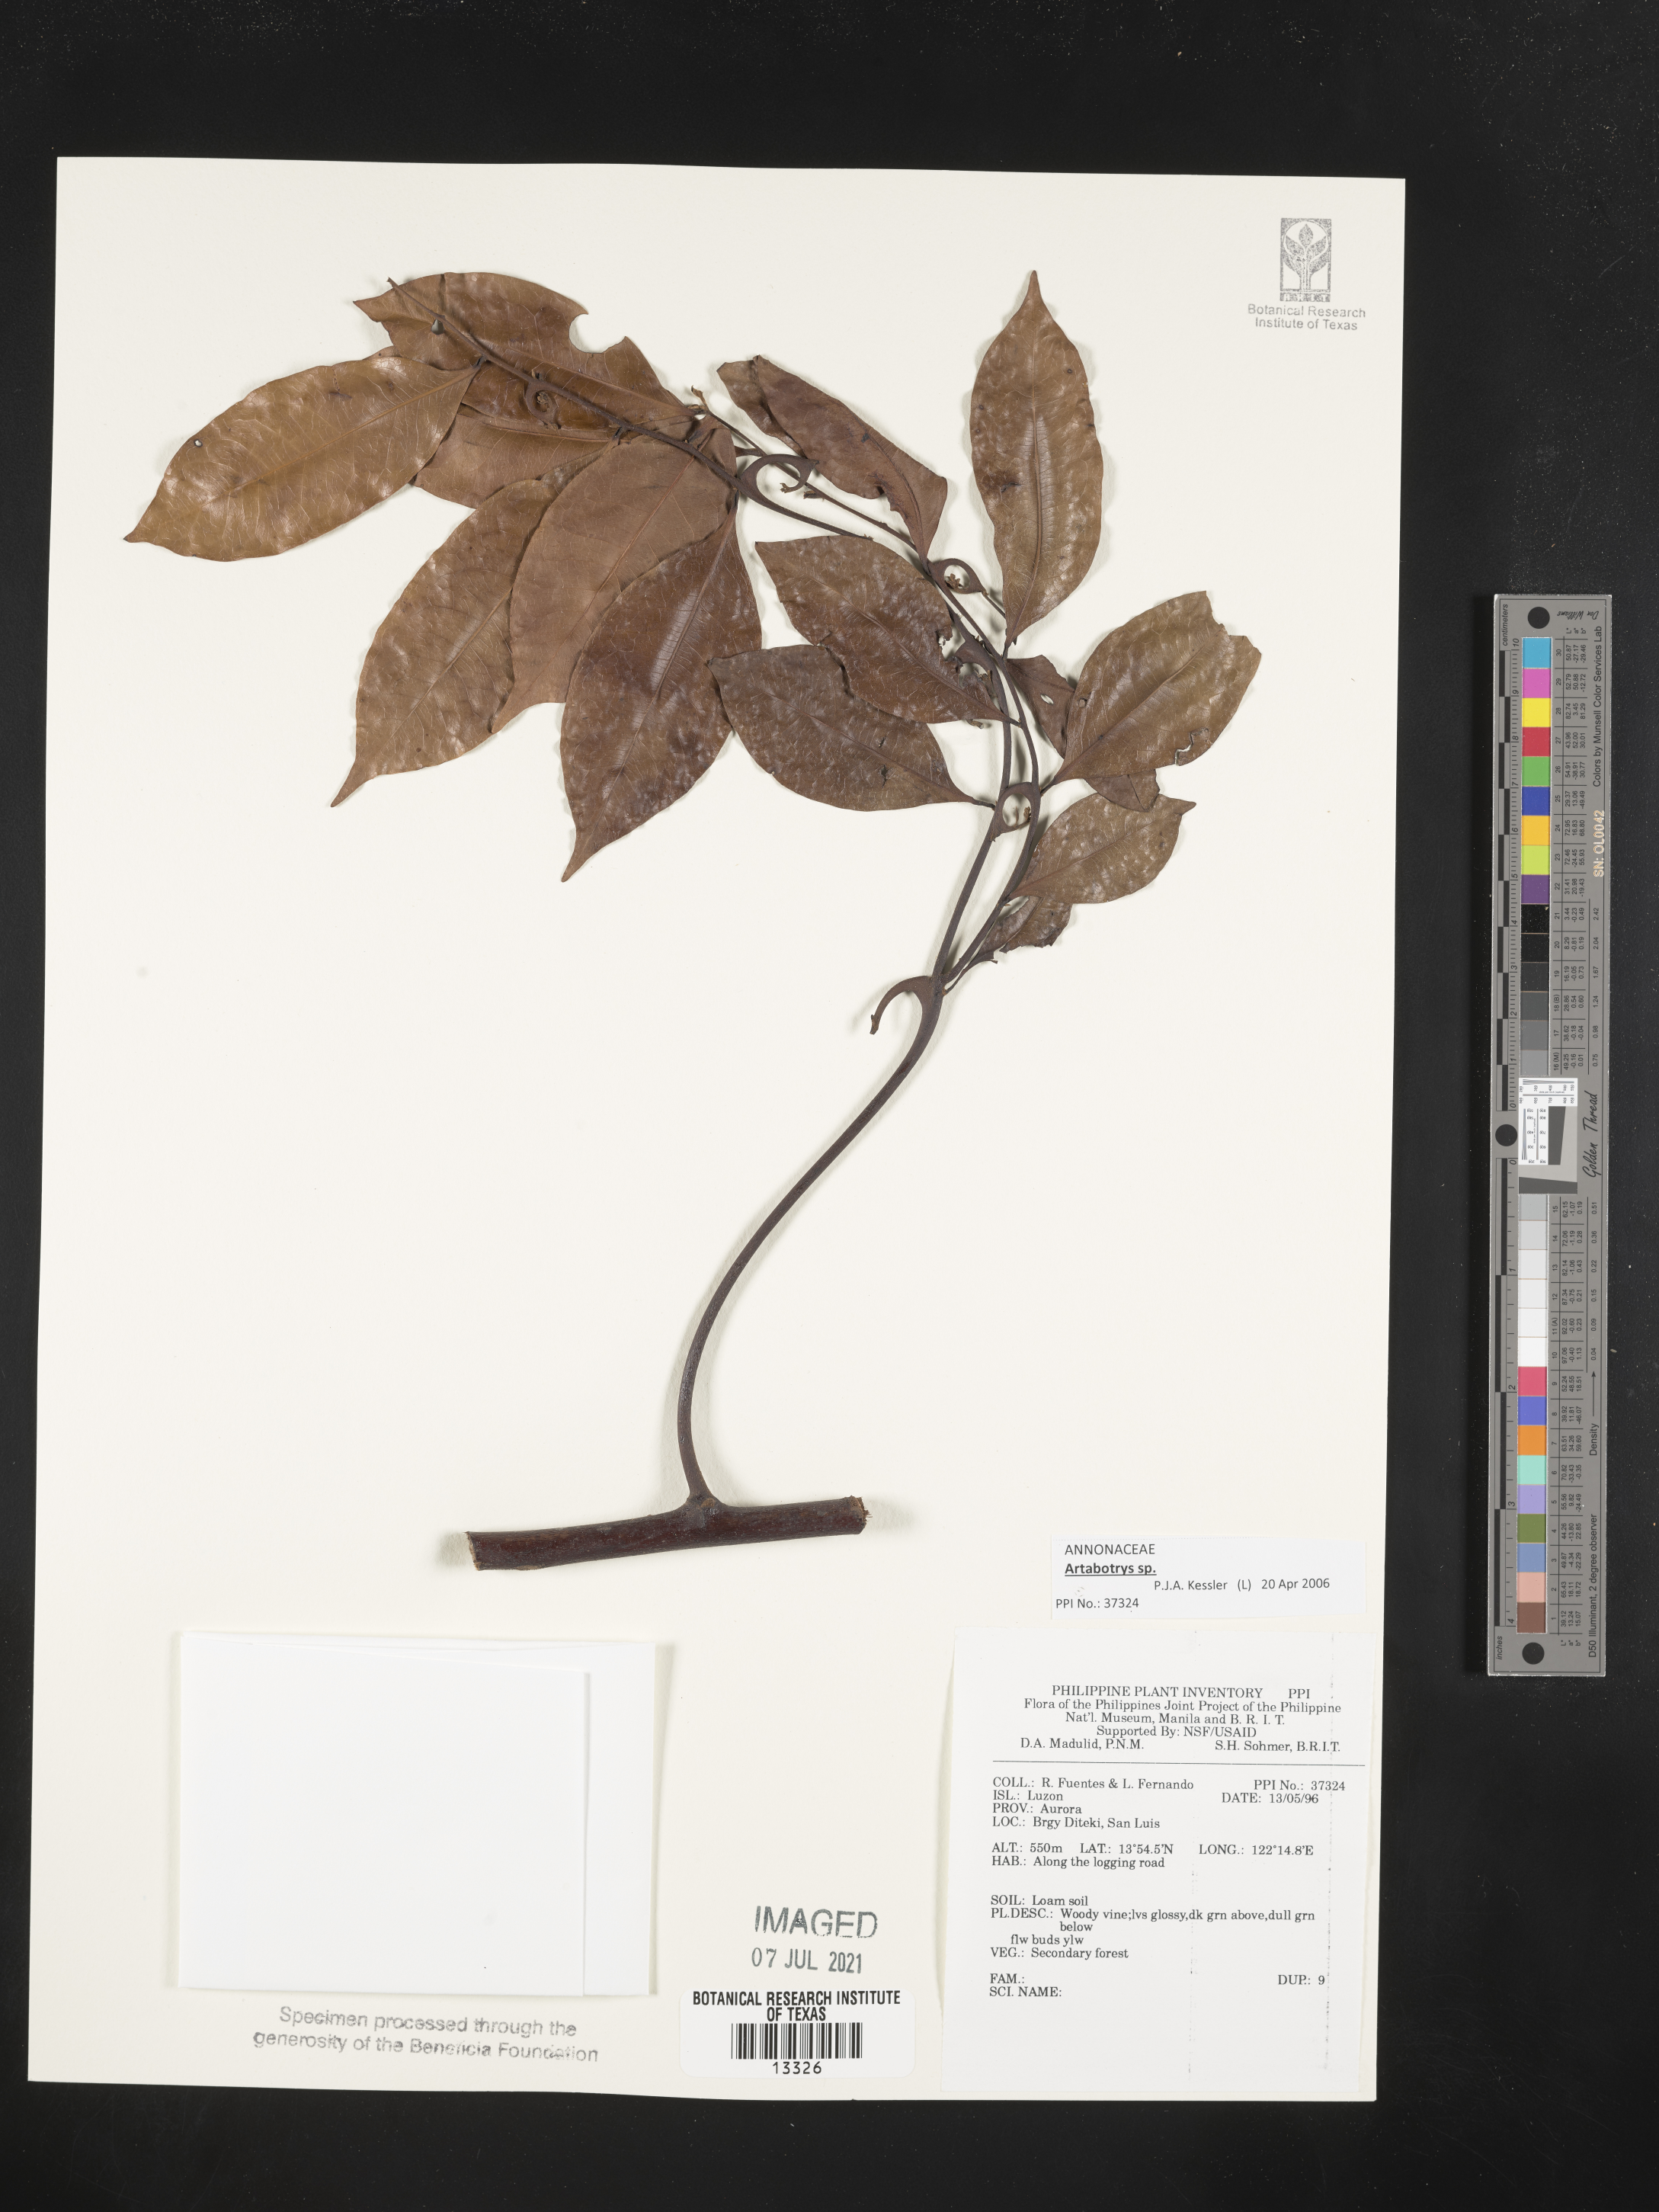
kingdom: Plantae
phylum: Tracheophyta
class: Magnoliopsida
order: Magnoliales
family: Annonaceae
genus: Artabotrys
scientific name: Artabotrys
